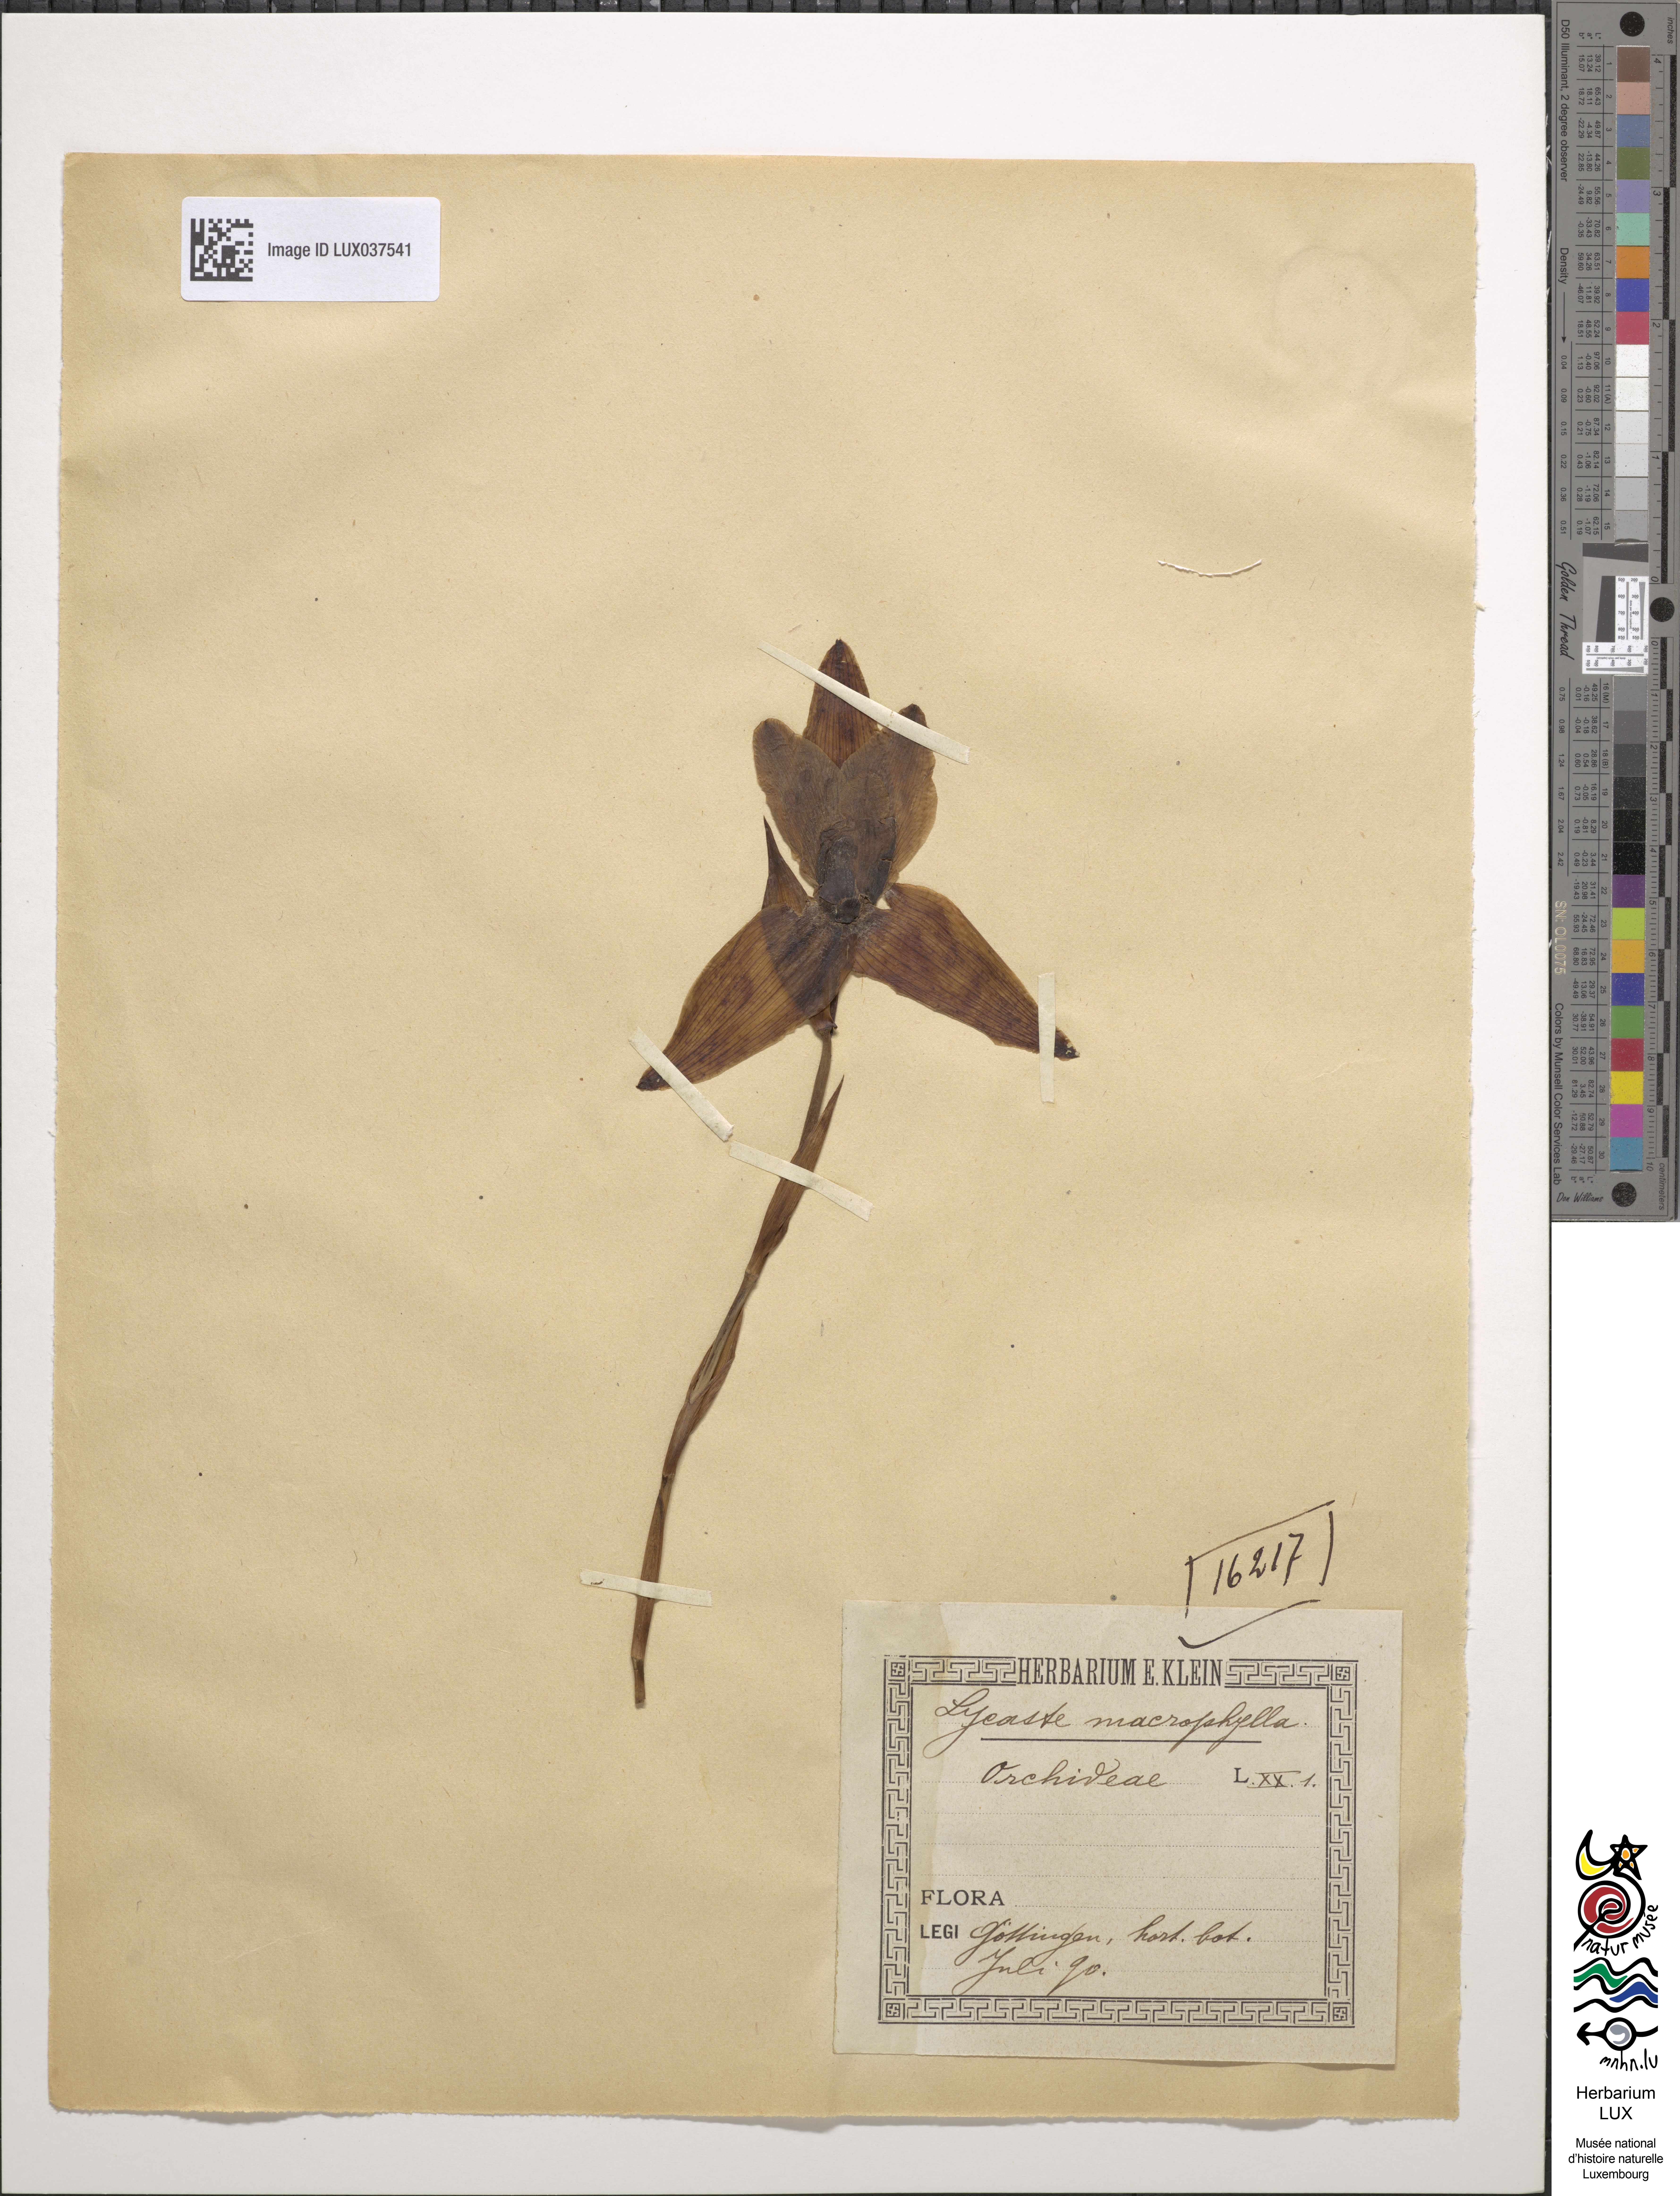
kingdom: Plantae
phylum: Tracheophyta
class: Liliopsida
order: Asparagales
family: Orchidaceae
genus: Lycaste
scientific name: Lycaste macrophylla
